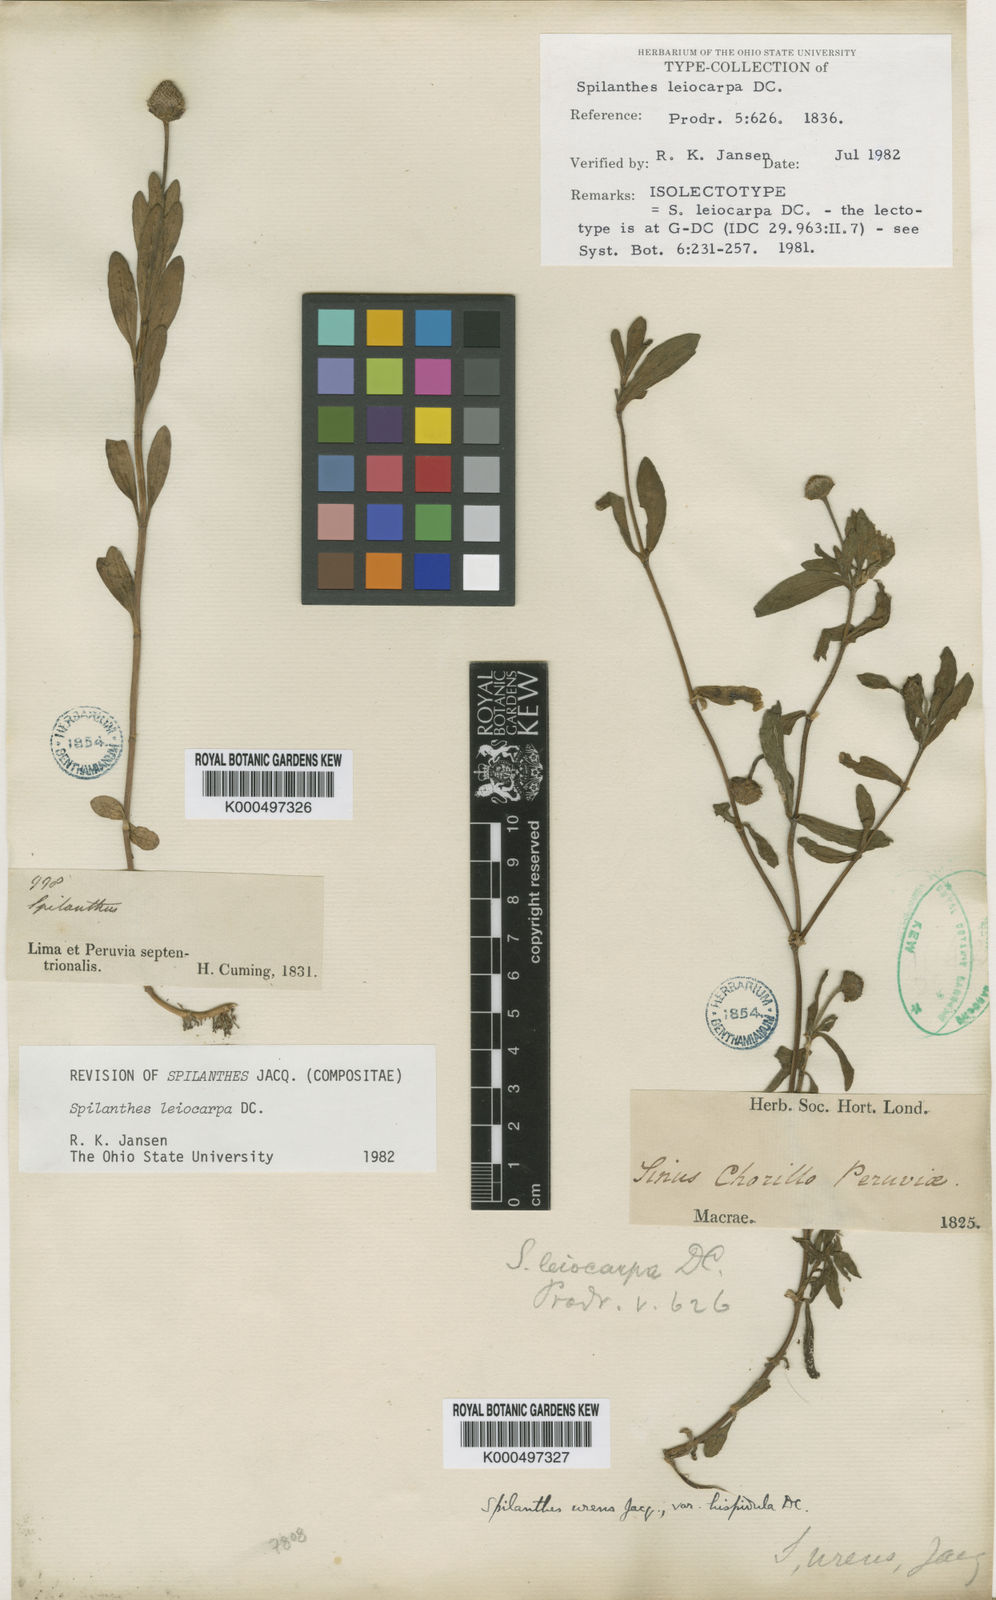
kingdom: Plantae
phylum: Tracheophyta
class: Magnoliopsida
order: Asterales
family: Asteraceae
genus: Spilanthes
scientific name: Spilanthes leiocarpa
